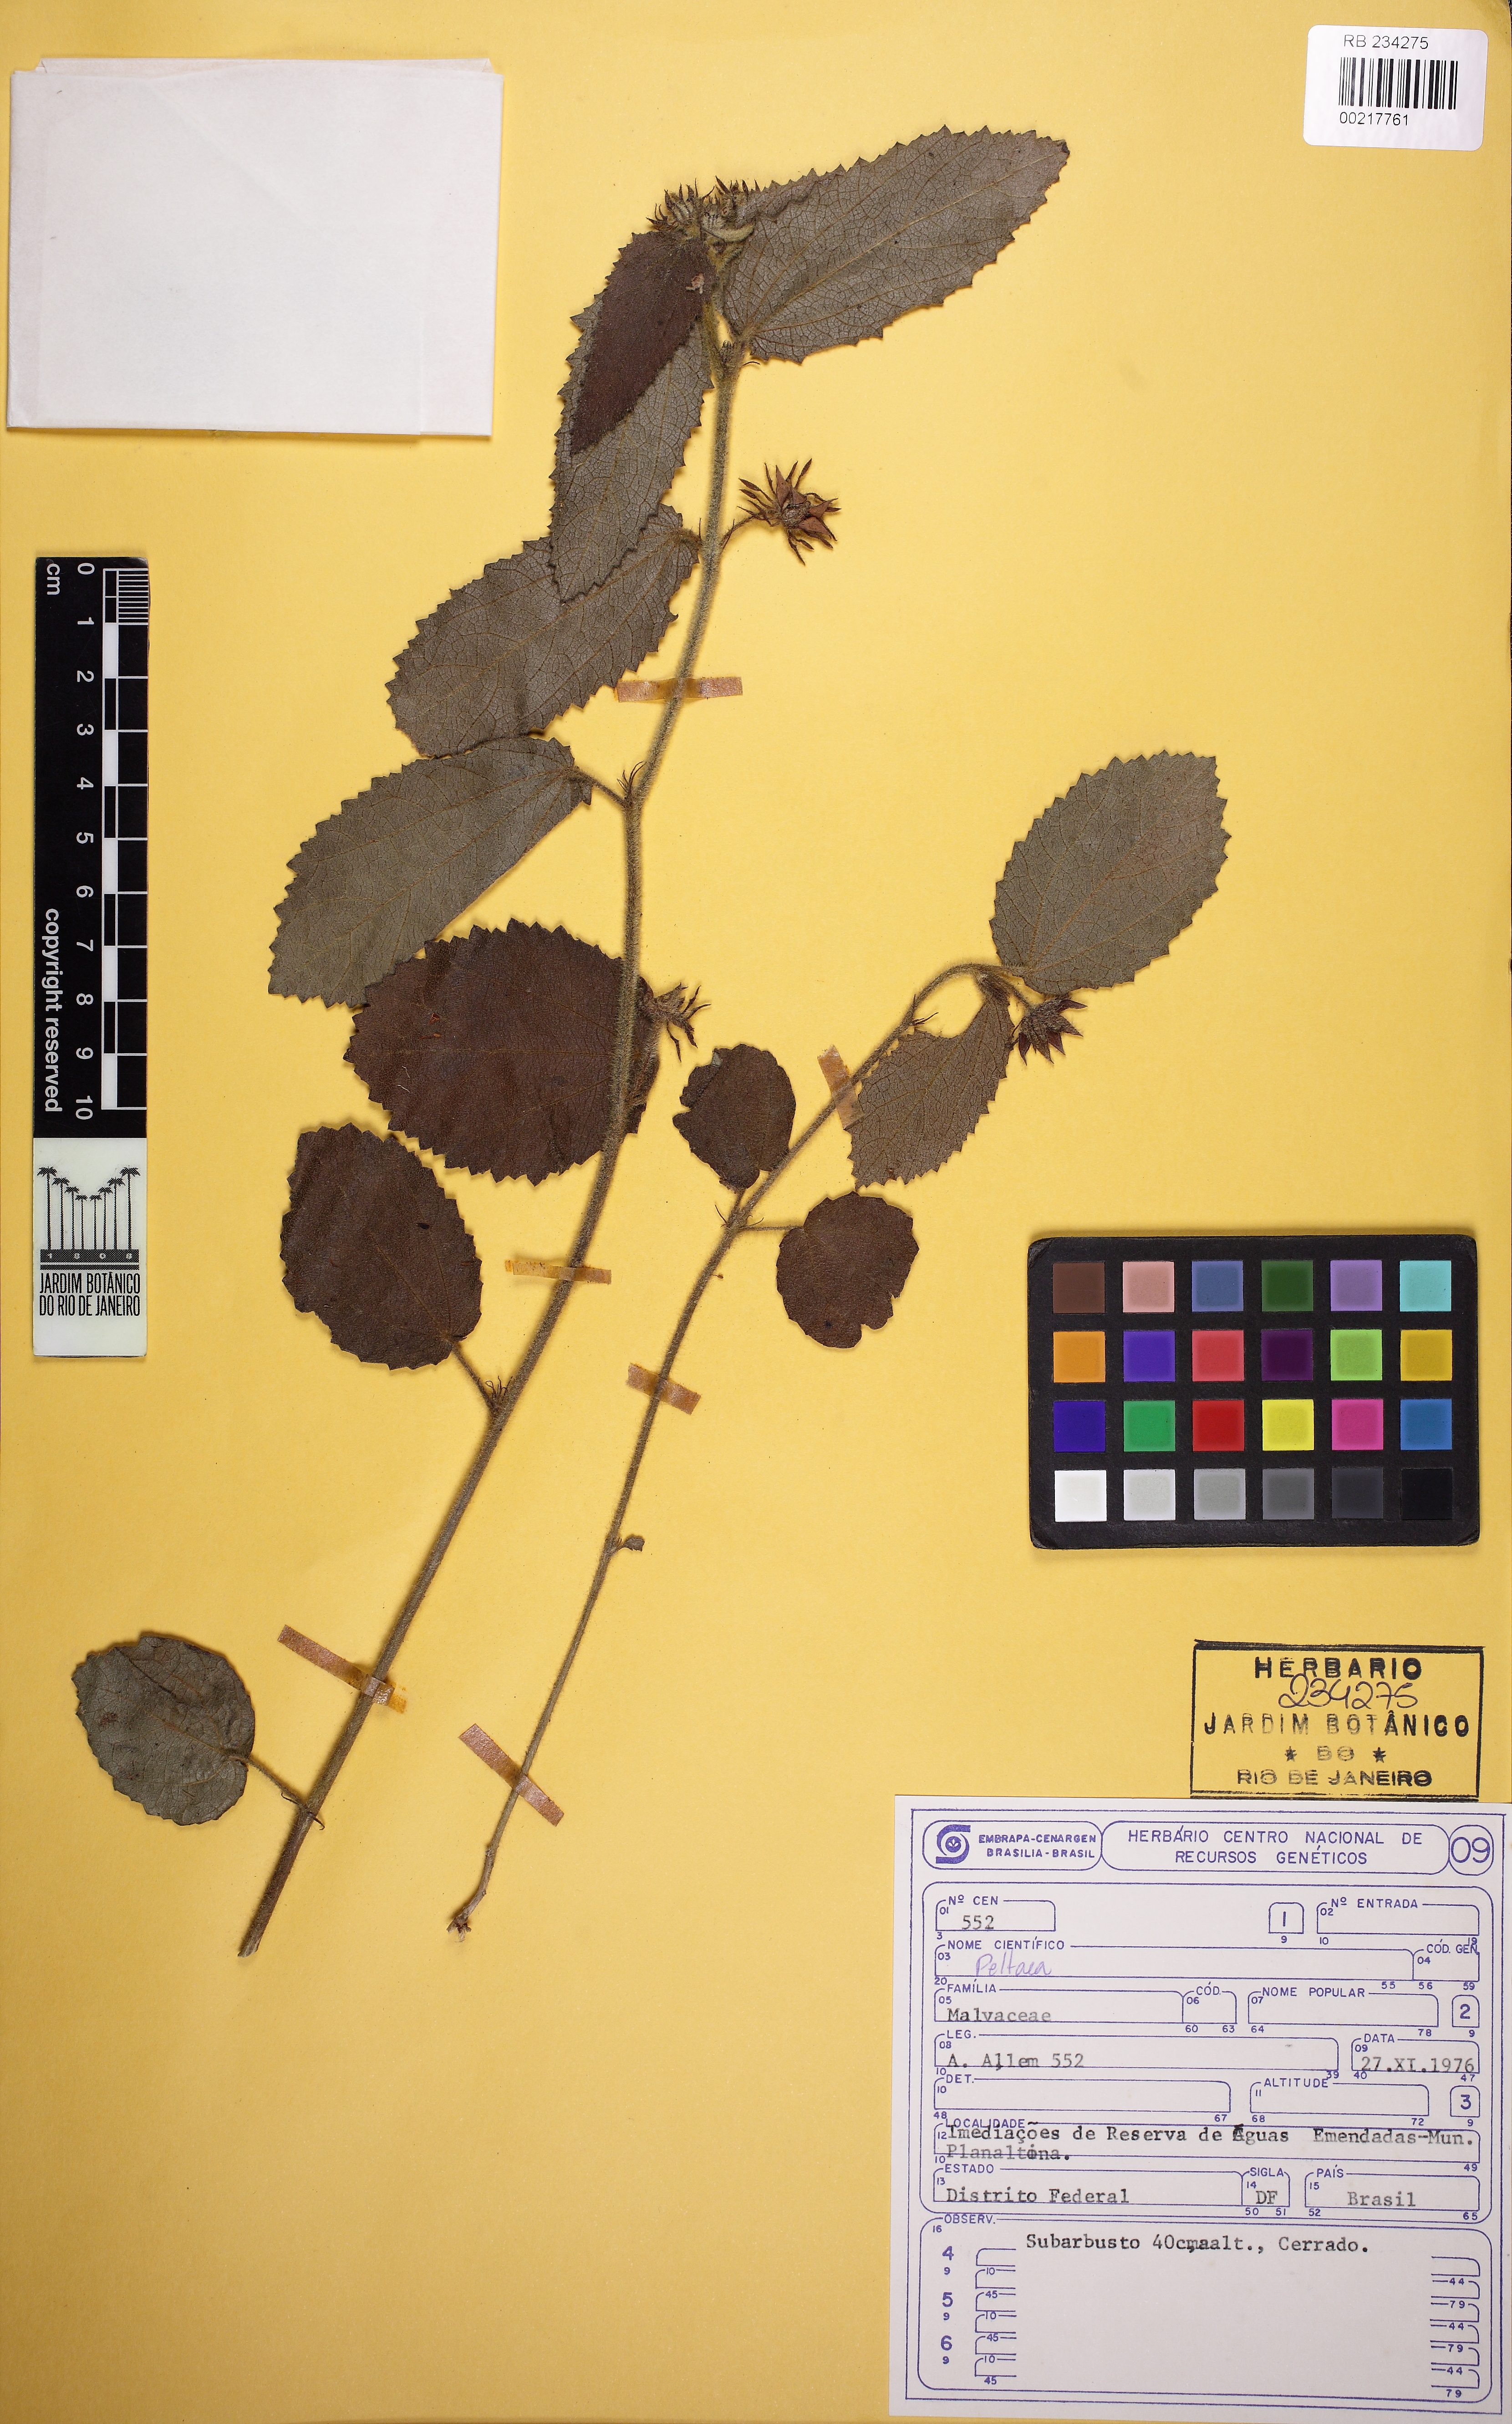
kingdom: Plantae
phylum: Tracheophyta
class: Magnoliopsida
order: Malvales
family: Malvaceae
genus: Peltaea
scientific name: Peltaea edouardii
